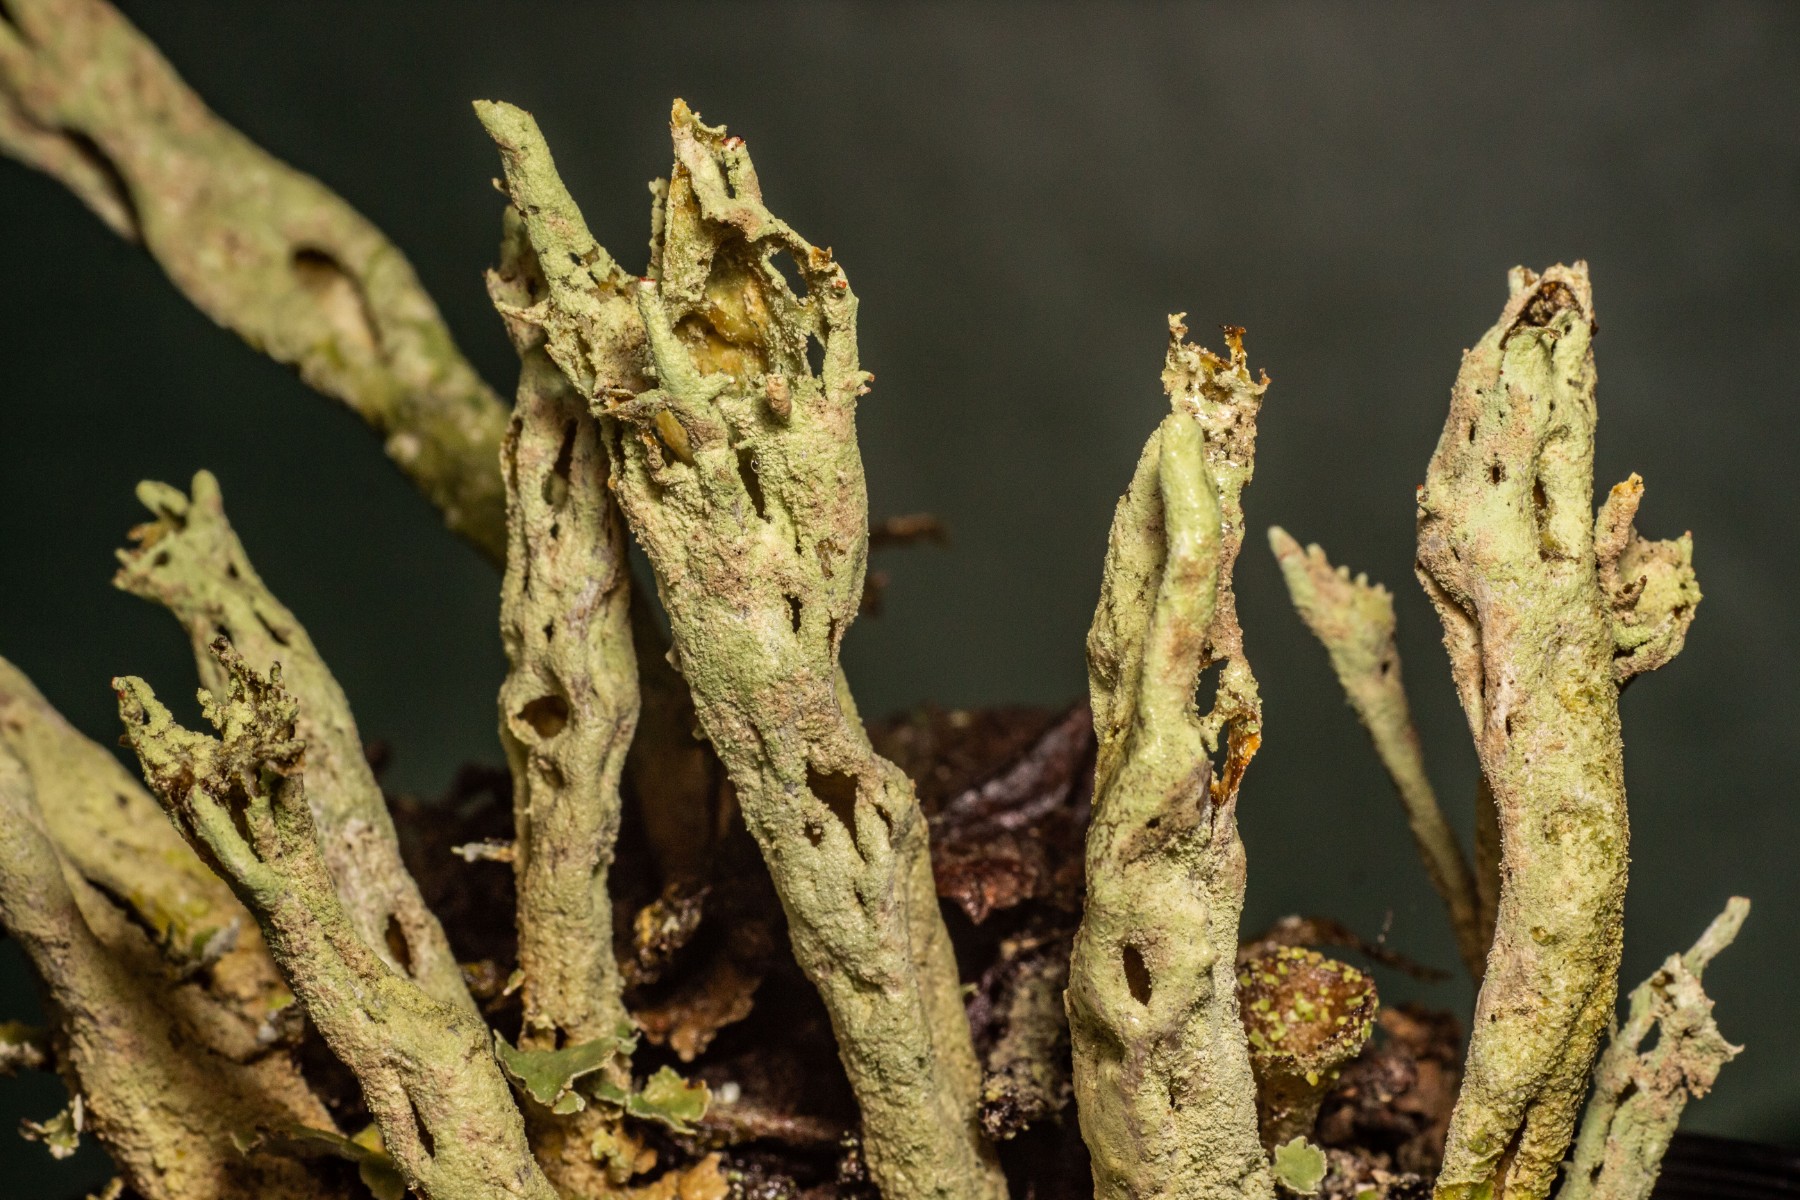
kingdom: Fungi
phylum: Ascomycota
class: Lecanoromycetes
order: Lecanorales
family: Cladoniaceae
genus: Cladonia
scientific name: Cladonia sulphurina
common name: opblæst bægerlav
